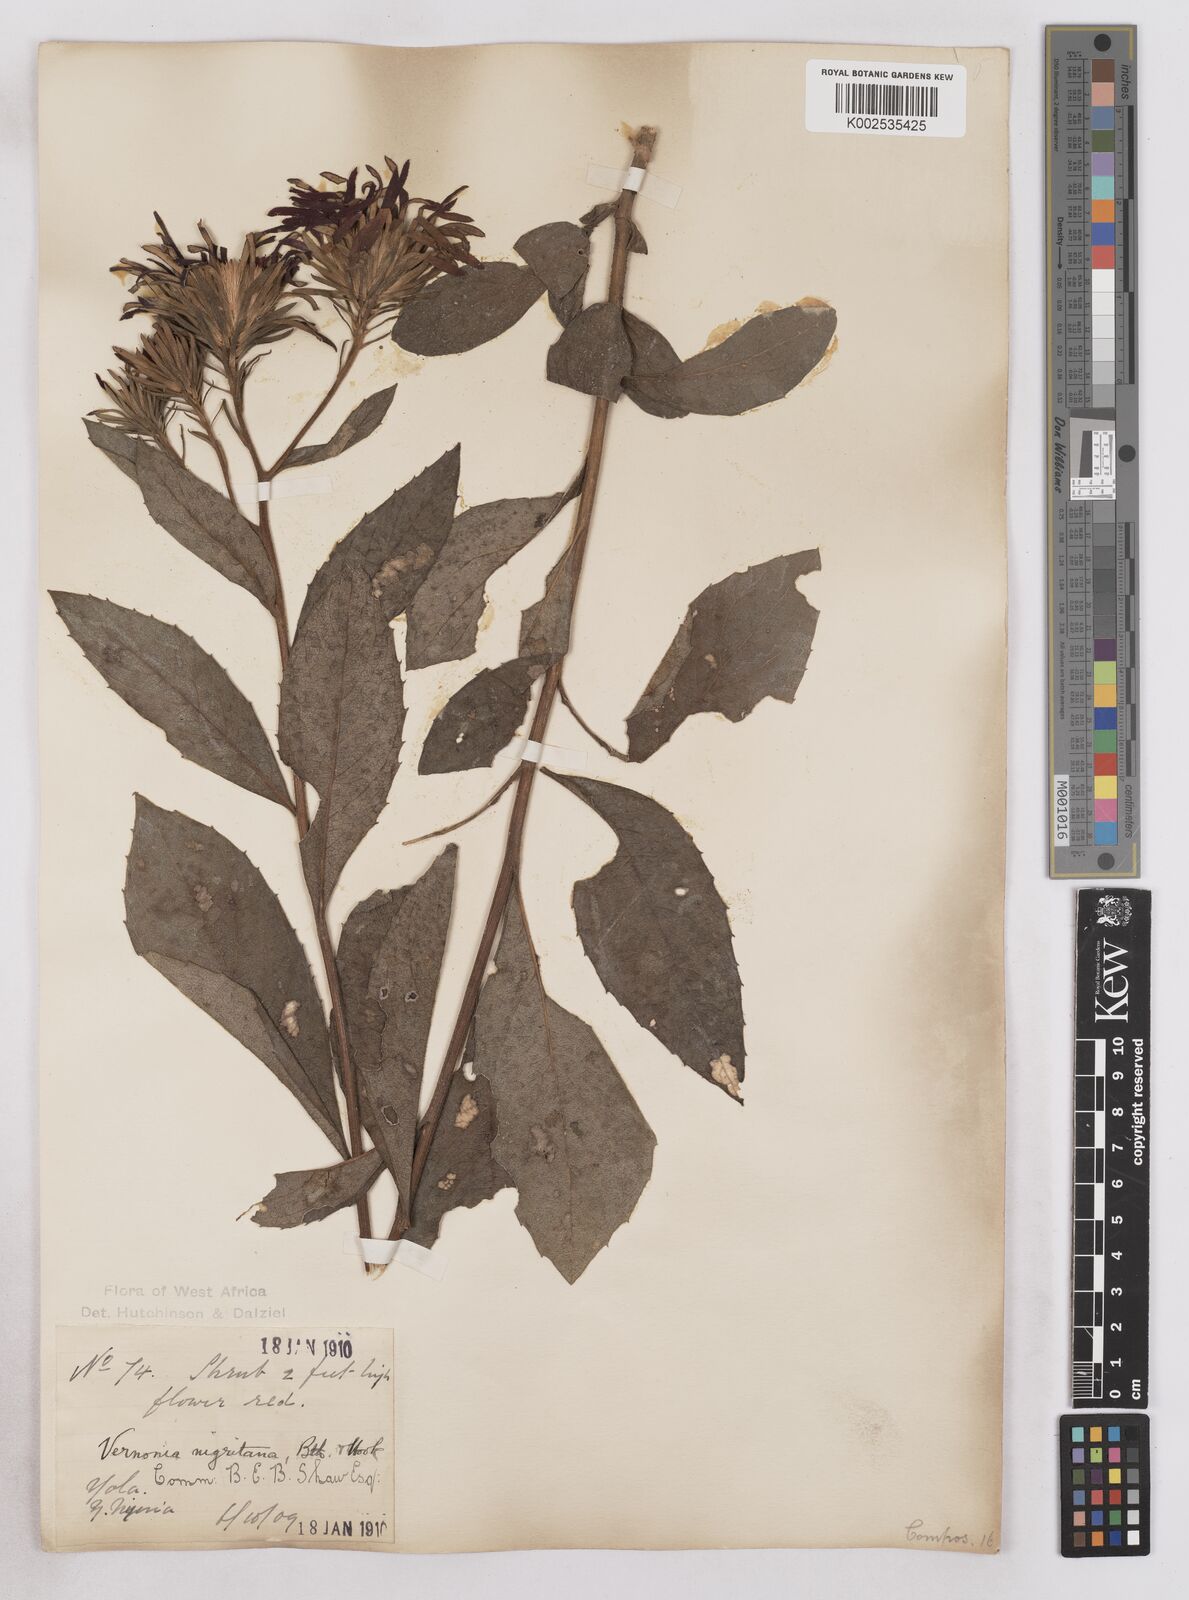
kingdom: Plantae
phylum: Tracheophyta
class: Magnoliopsida
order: Asterales
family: Asteraceae
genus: Linzia
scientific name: Linzia nigritiana
